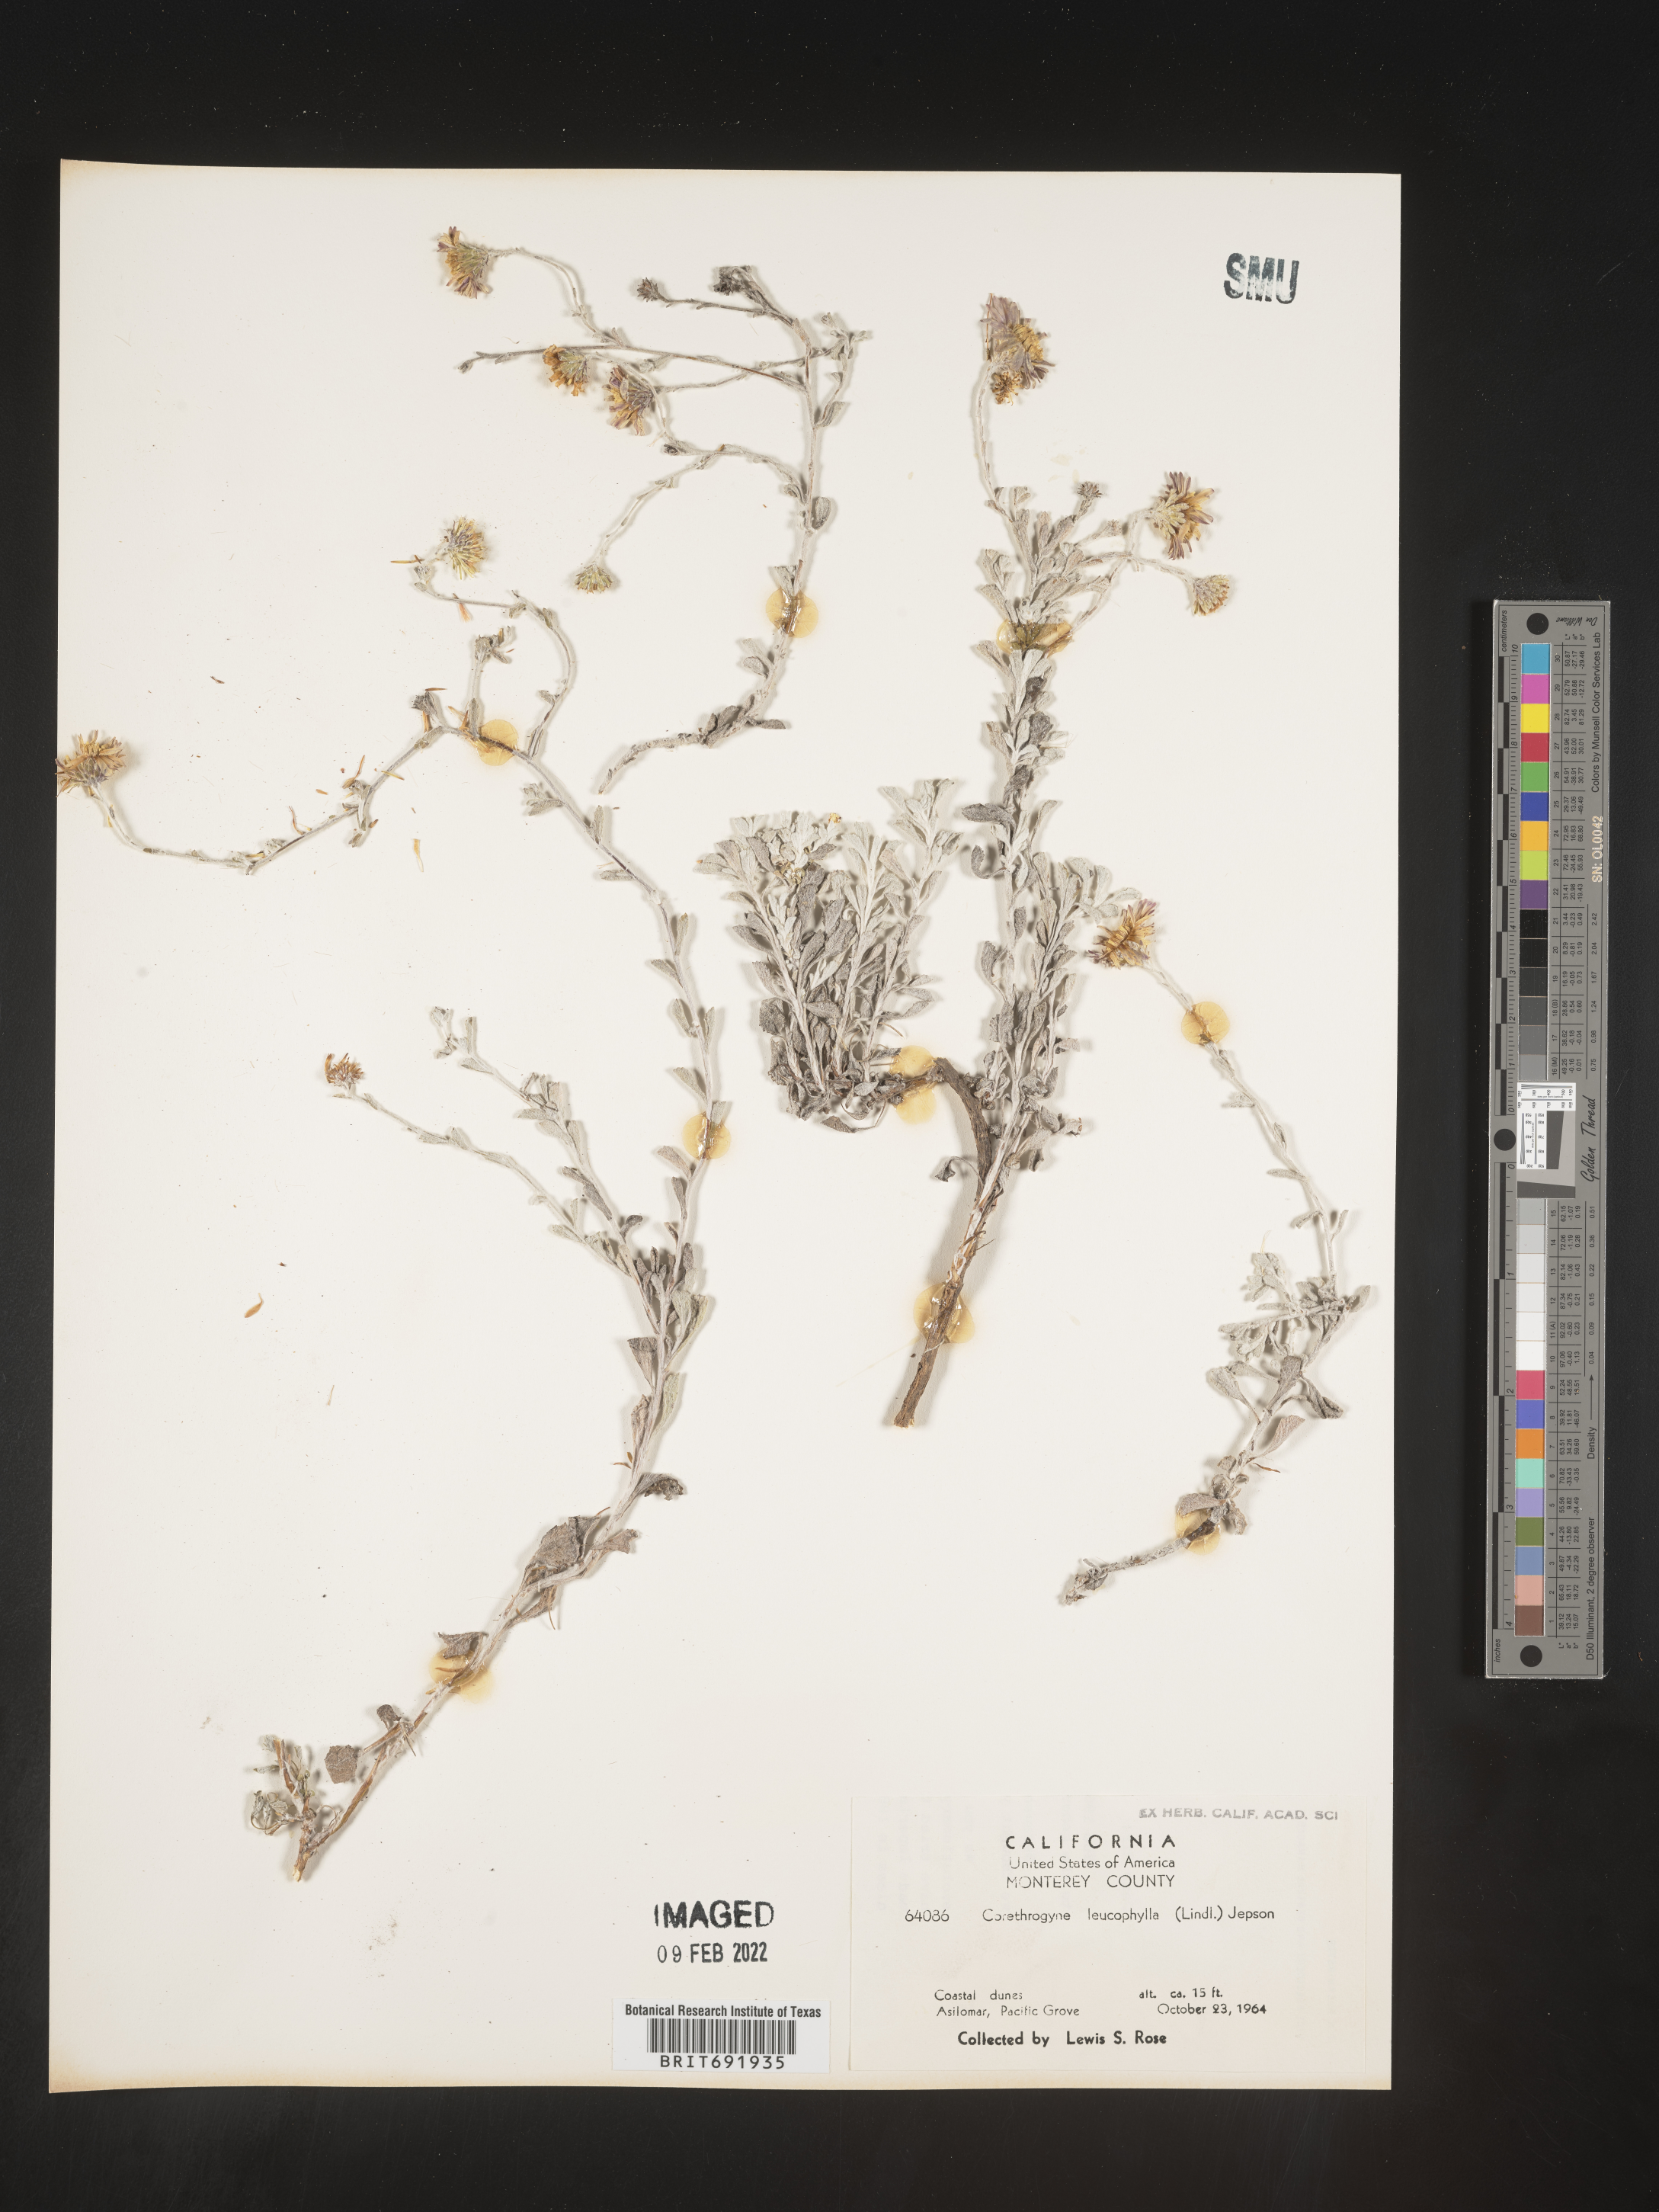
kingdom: Plantae
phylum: Tracheophyta
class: Magnoliopsida
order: Asterales
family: Asteraceae
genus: Corethrogyne
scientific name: Corethrogyne
